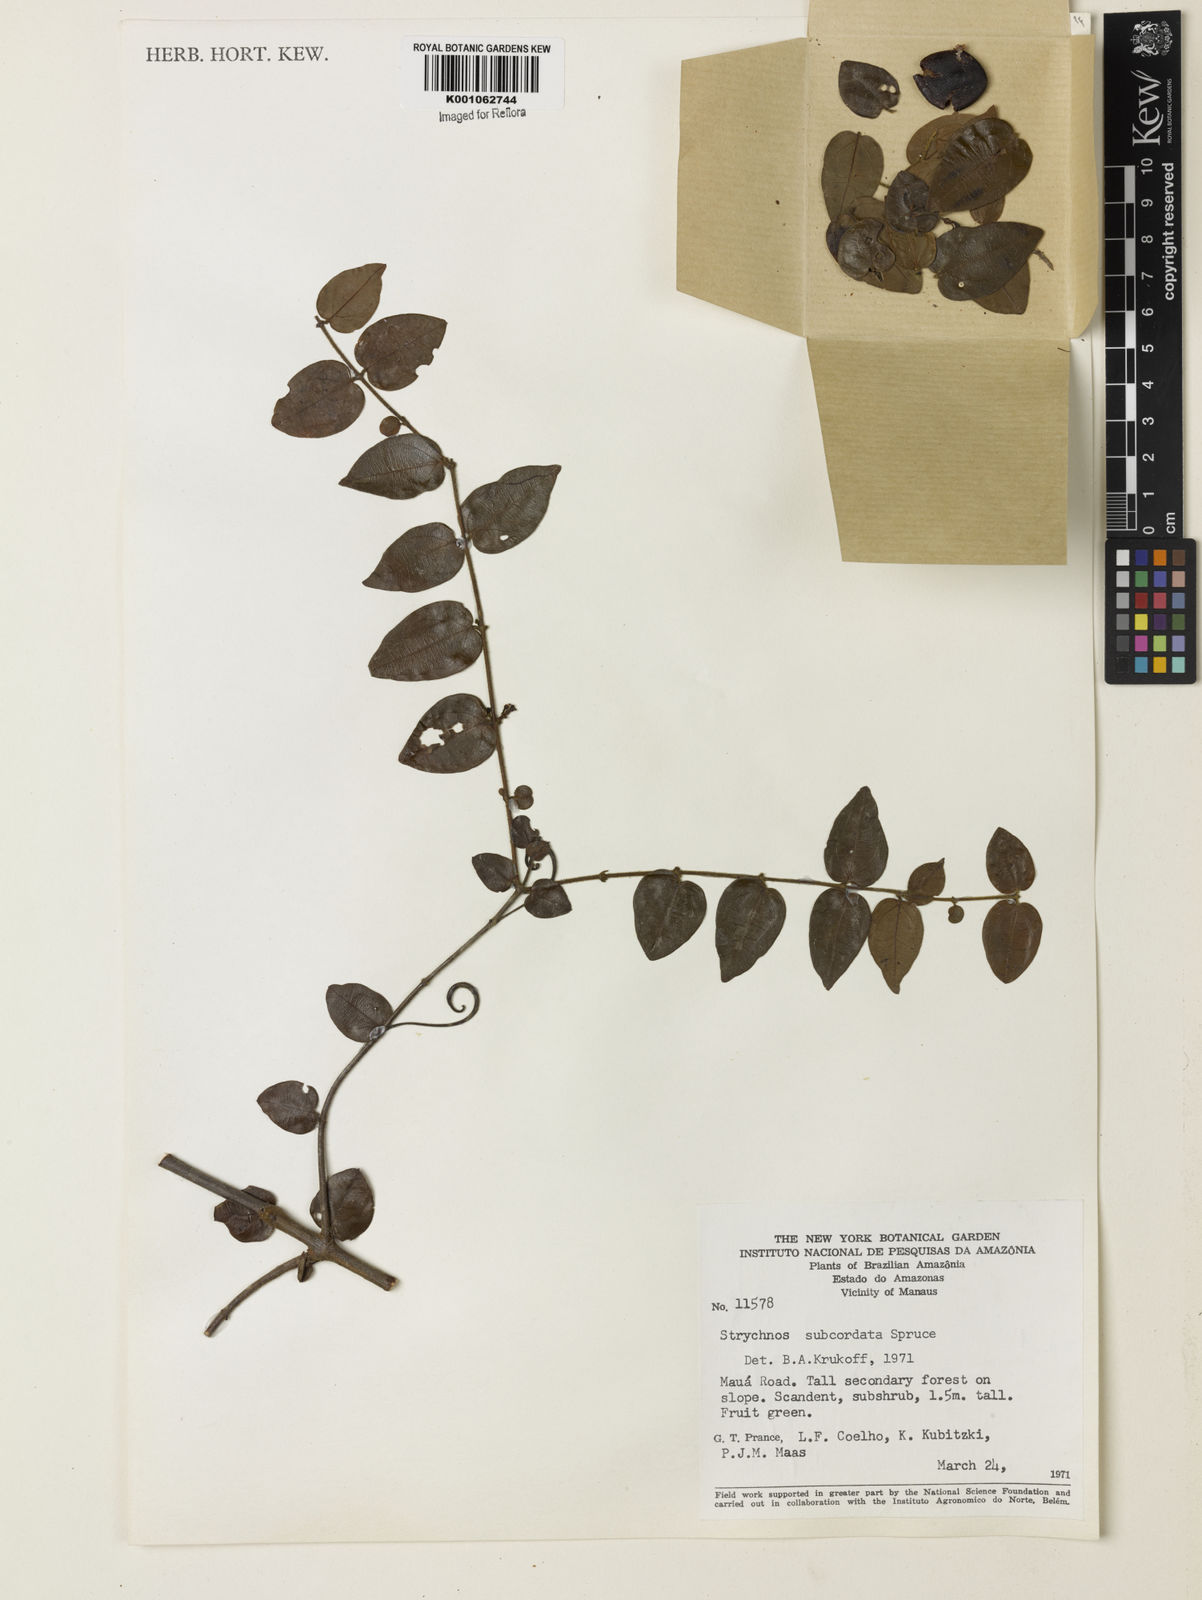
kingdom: Plantae
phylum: Tracheophyta
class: Magnoliopsida
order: Gentianales
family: Loganiaceae
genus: Strychnos
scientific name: Strychnos subcordata
